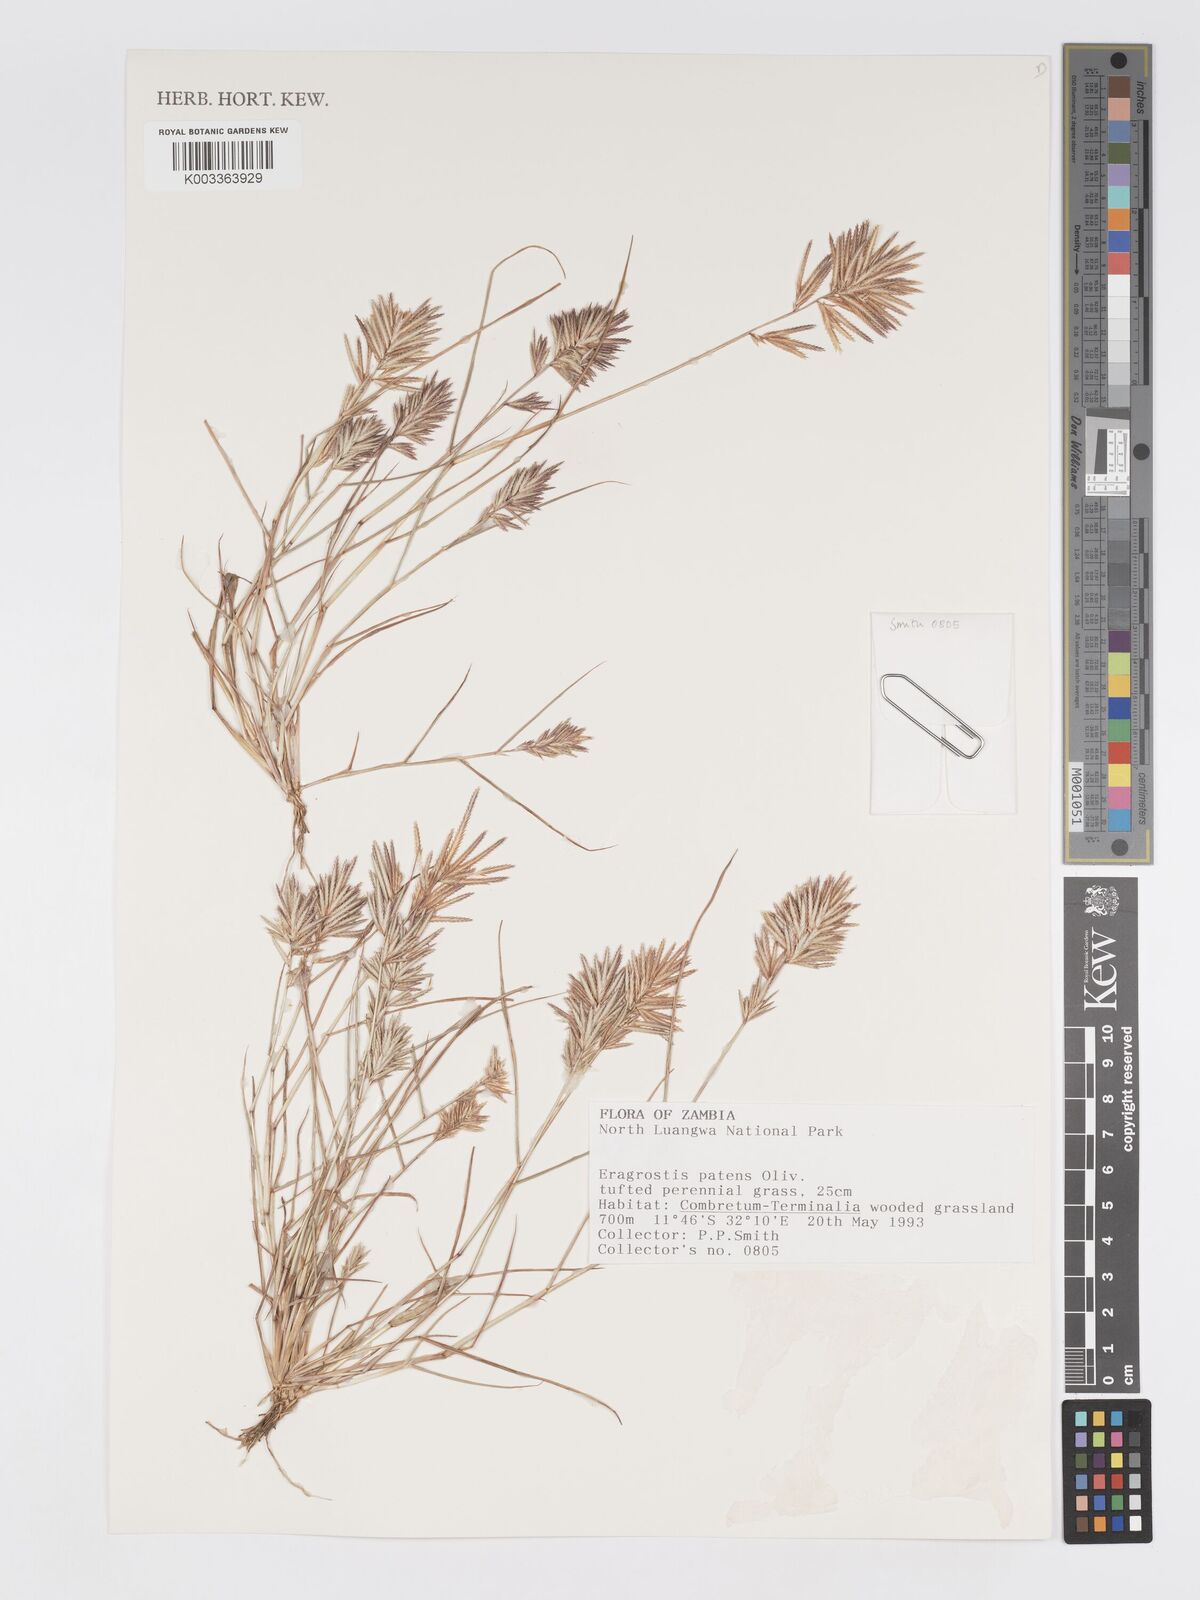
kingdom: Plantae
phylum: Tracheophyta
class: Liliopsida
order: Poales
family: Poaceae
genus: Eragrostis
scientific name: Eragrostis patens
